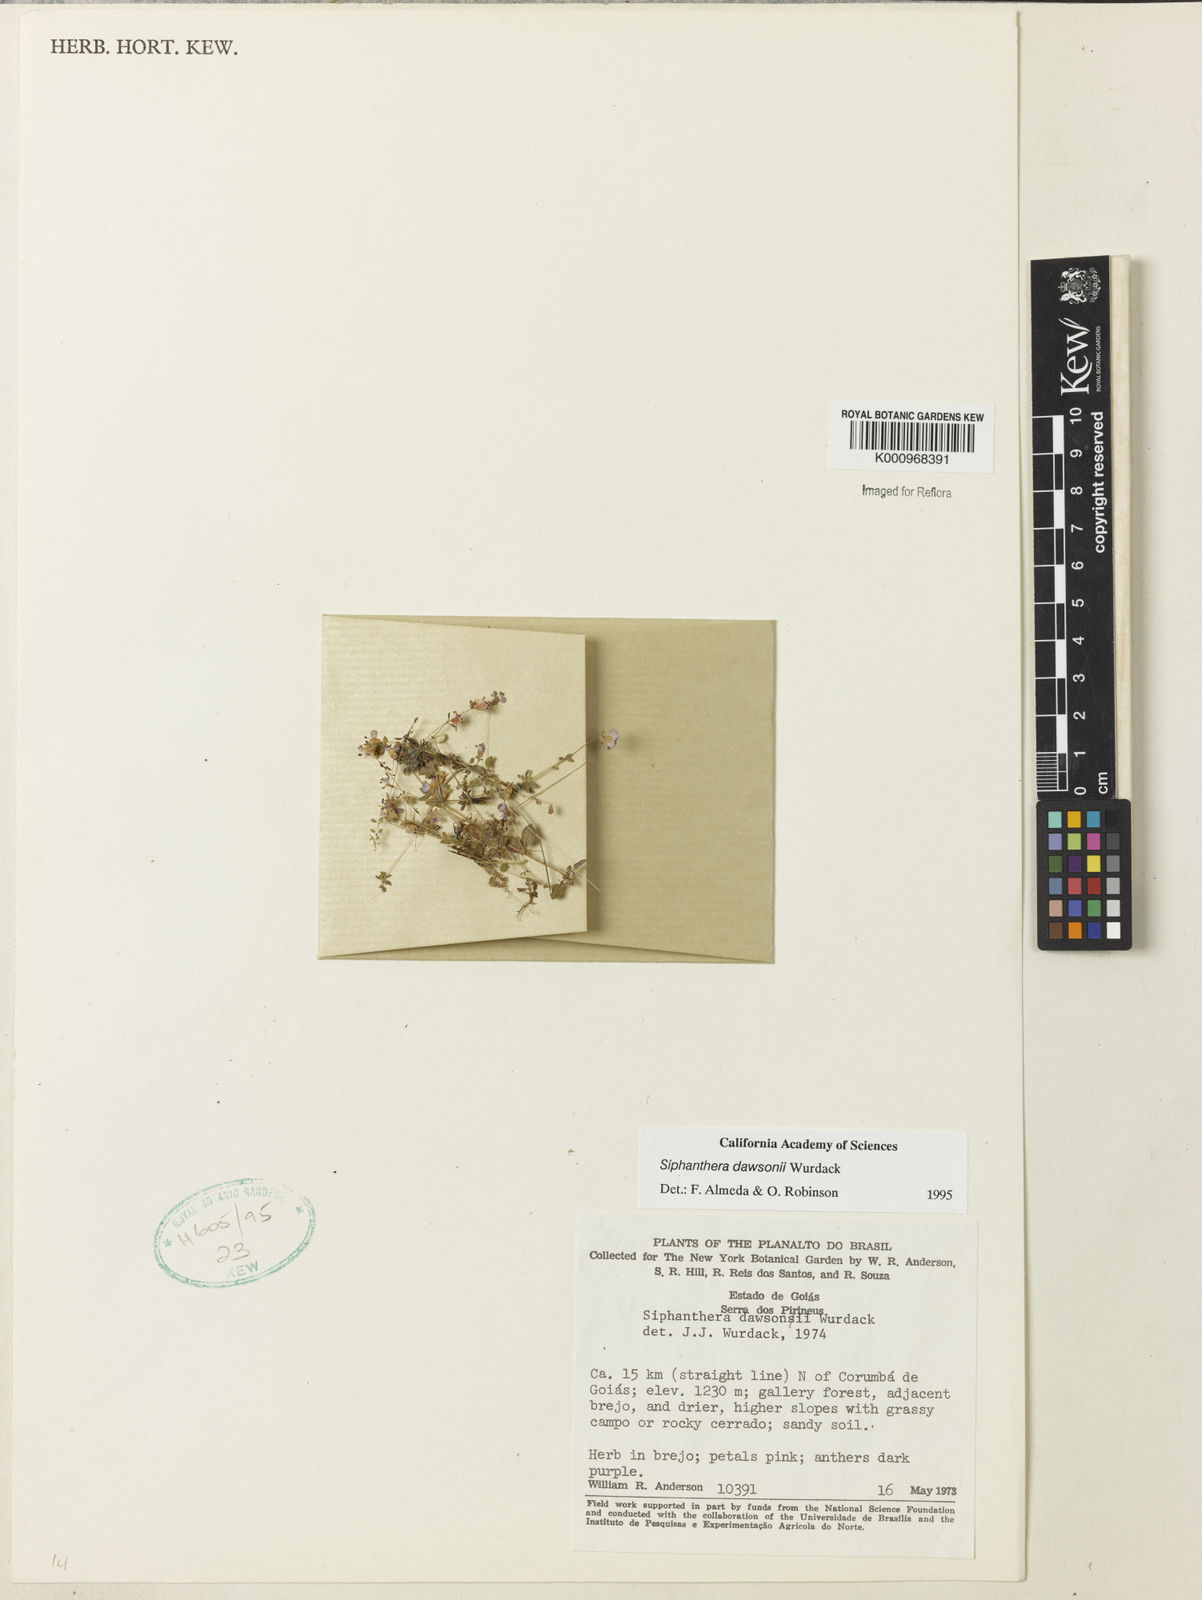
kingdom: Plantae
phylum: Tracheophyta
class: Magnoliopsida
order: Myrtales
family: Melastomataceae
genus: Siphanthera
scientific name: Siphanthera dawsonii
